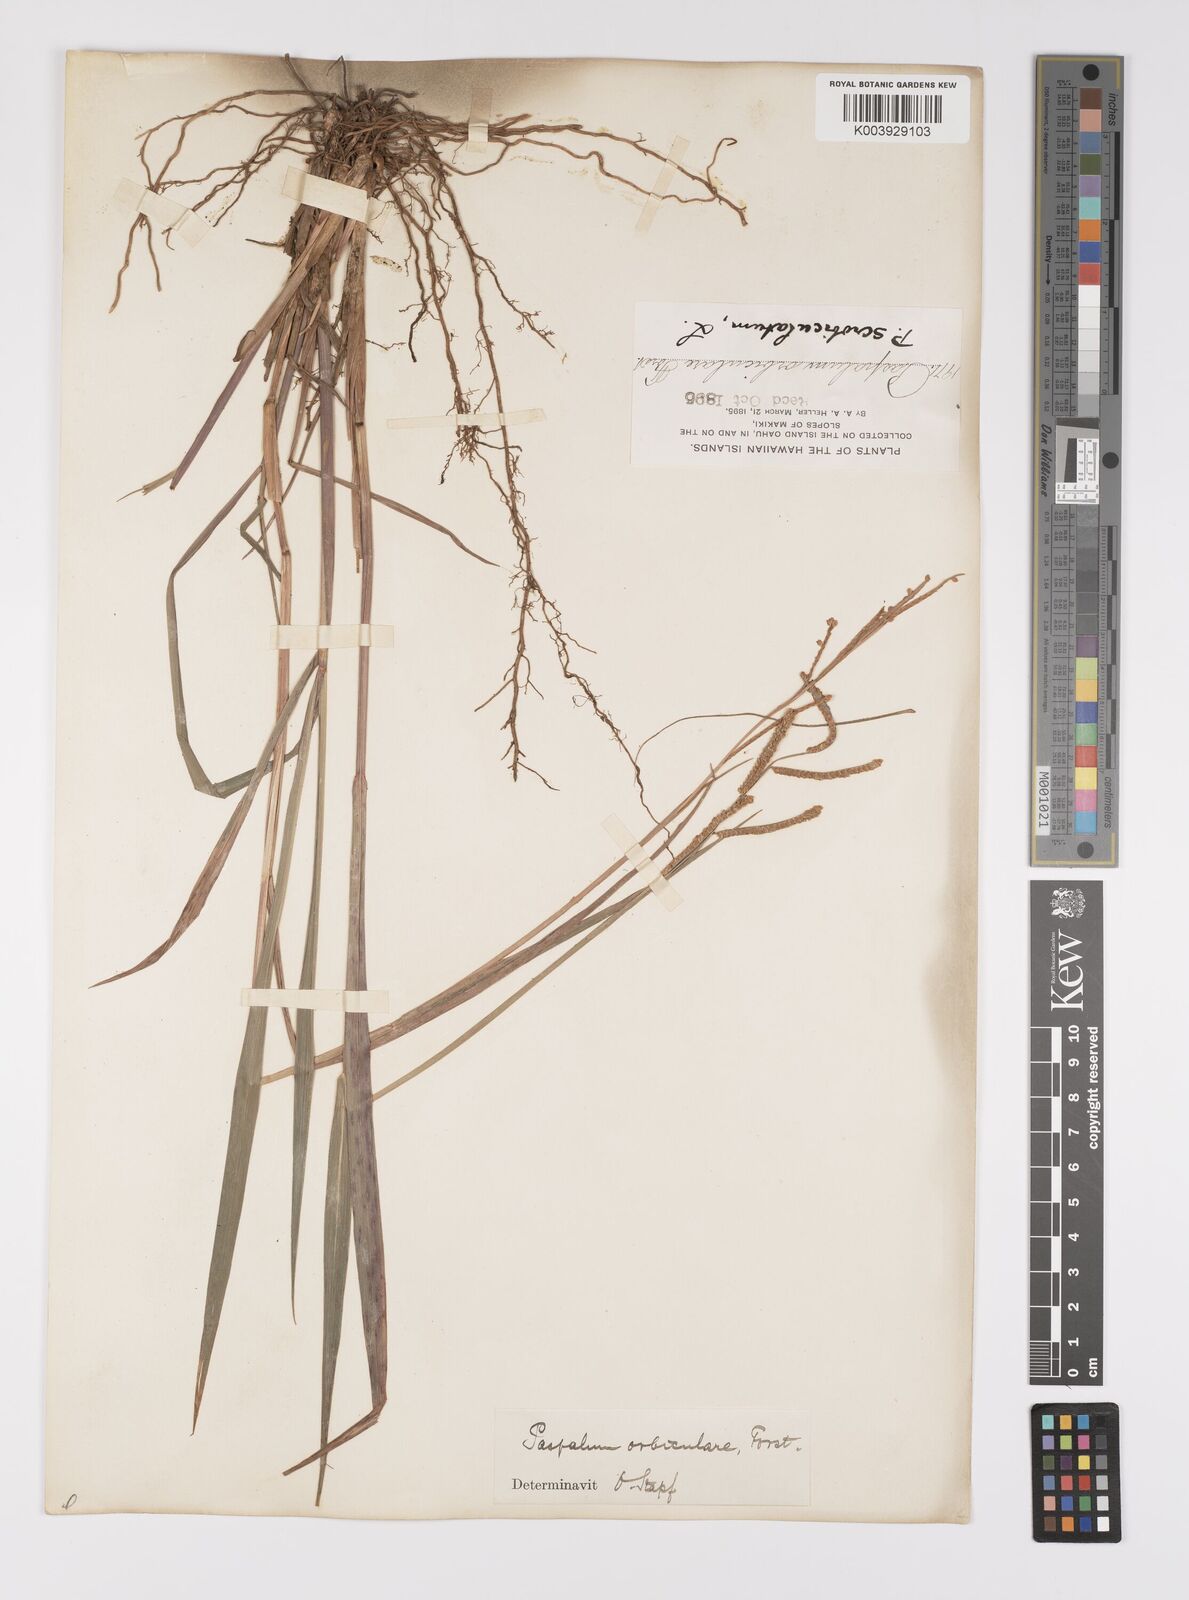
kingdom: Plantae
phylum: Tracheophyta
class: Liliopsida
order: Poales
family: Poaceae
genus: Paspalum
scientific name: Paspalum scrobiculatum
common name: Kodo millet
